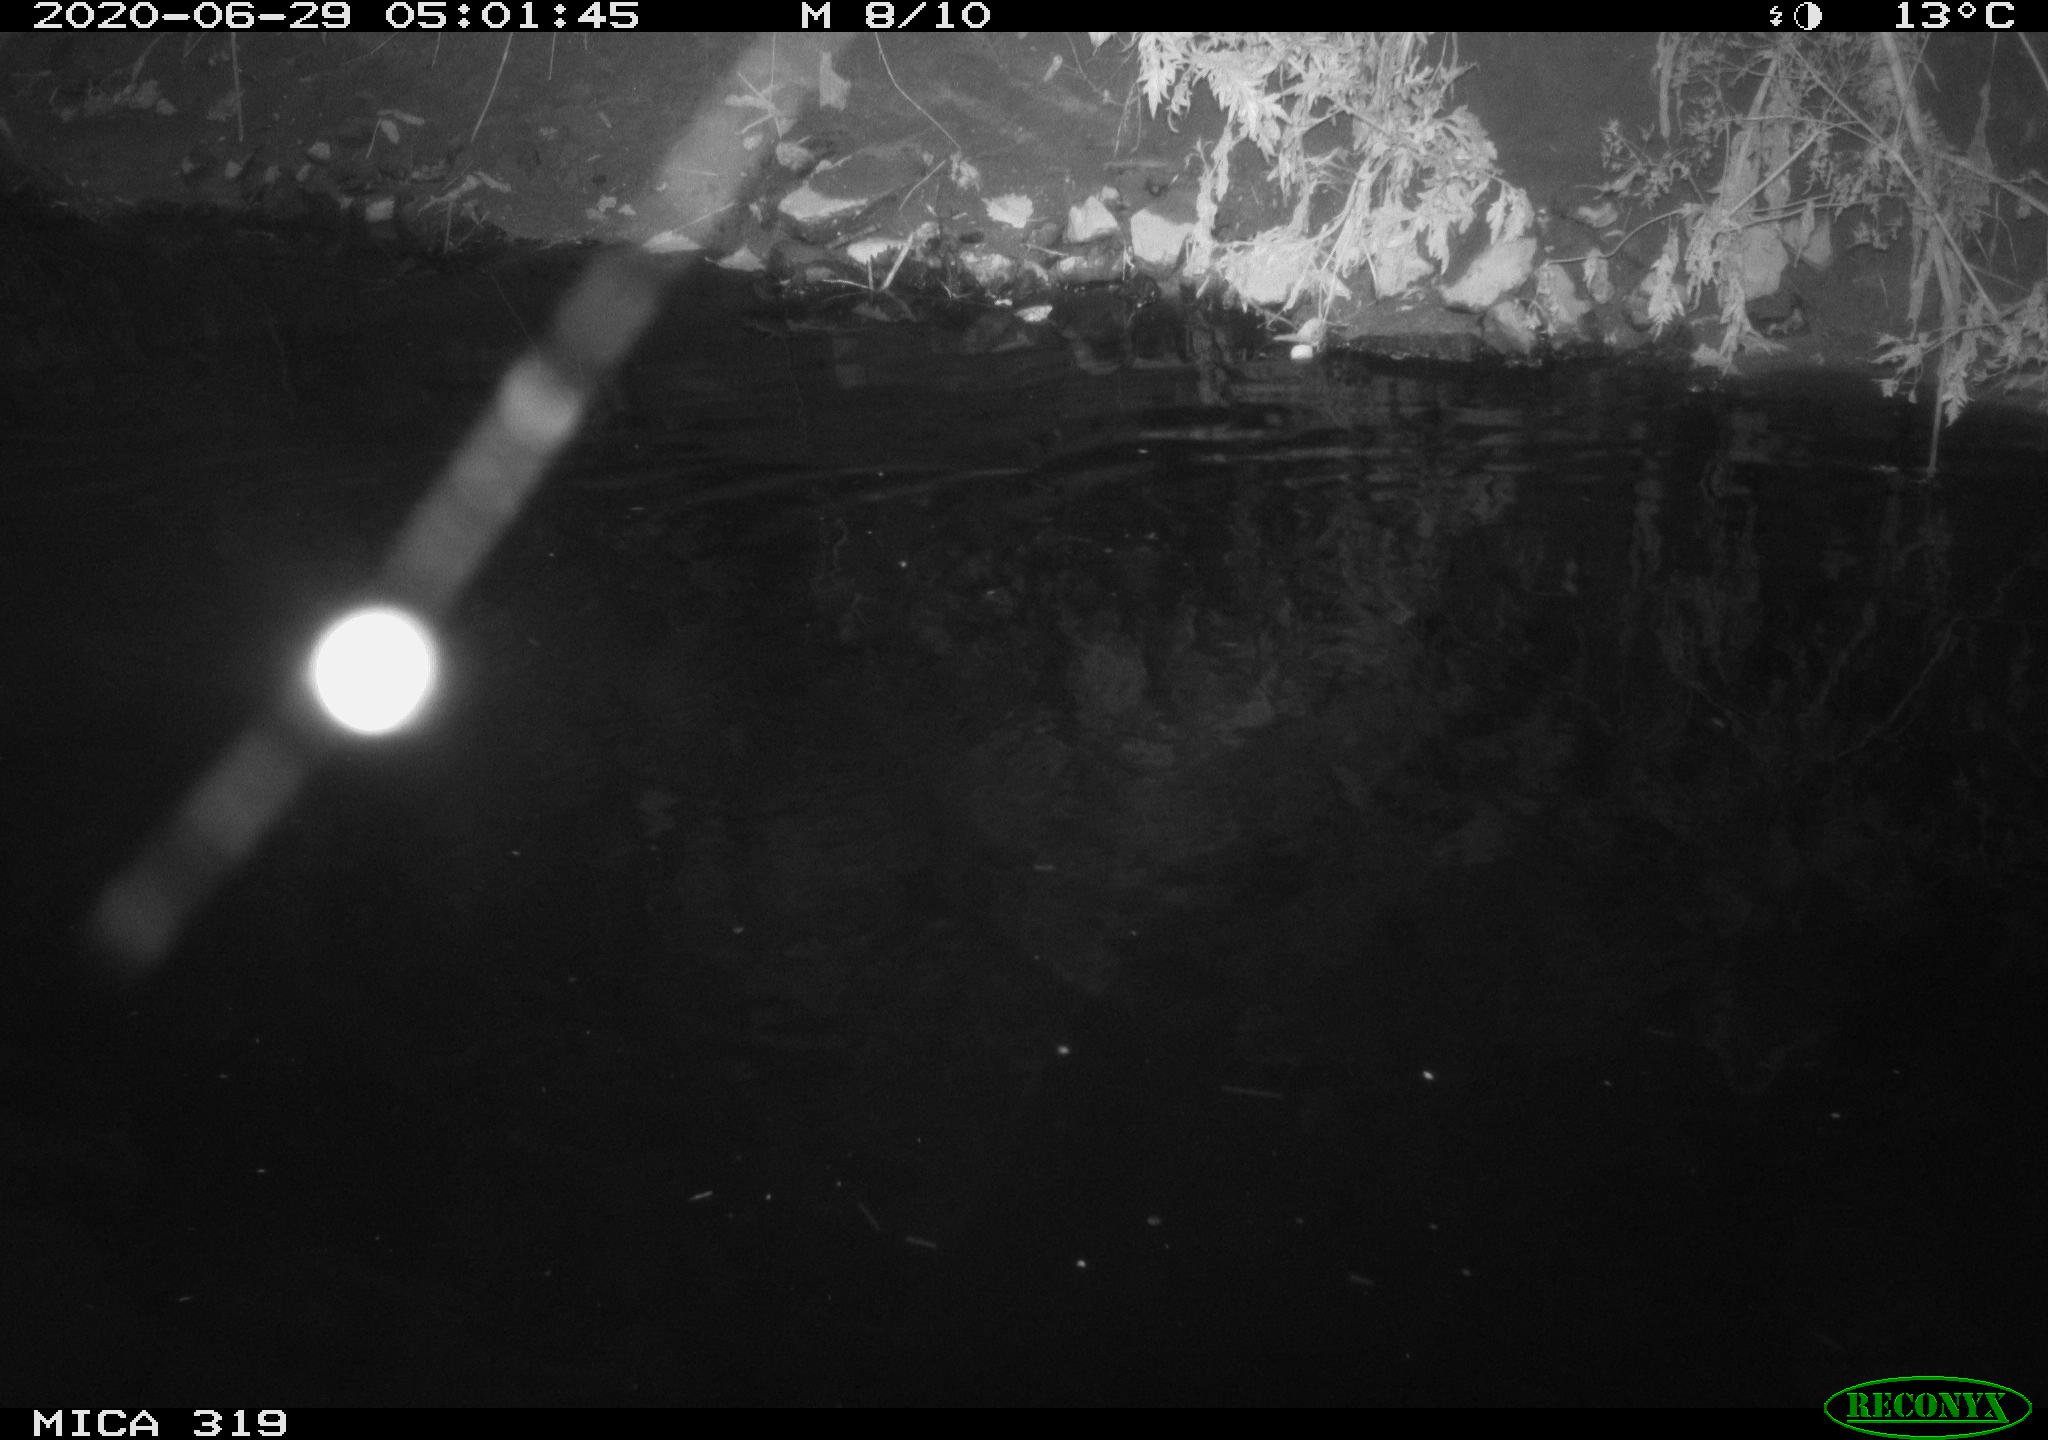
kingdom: Animalia
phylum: Chordata
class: Aves
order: Anseriformes
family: Anatidae
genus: Anas
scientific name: Anas platyrhynchos
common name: Mallard
